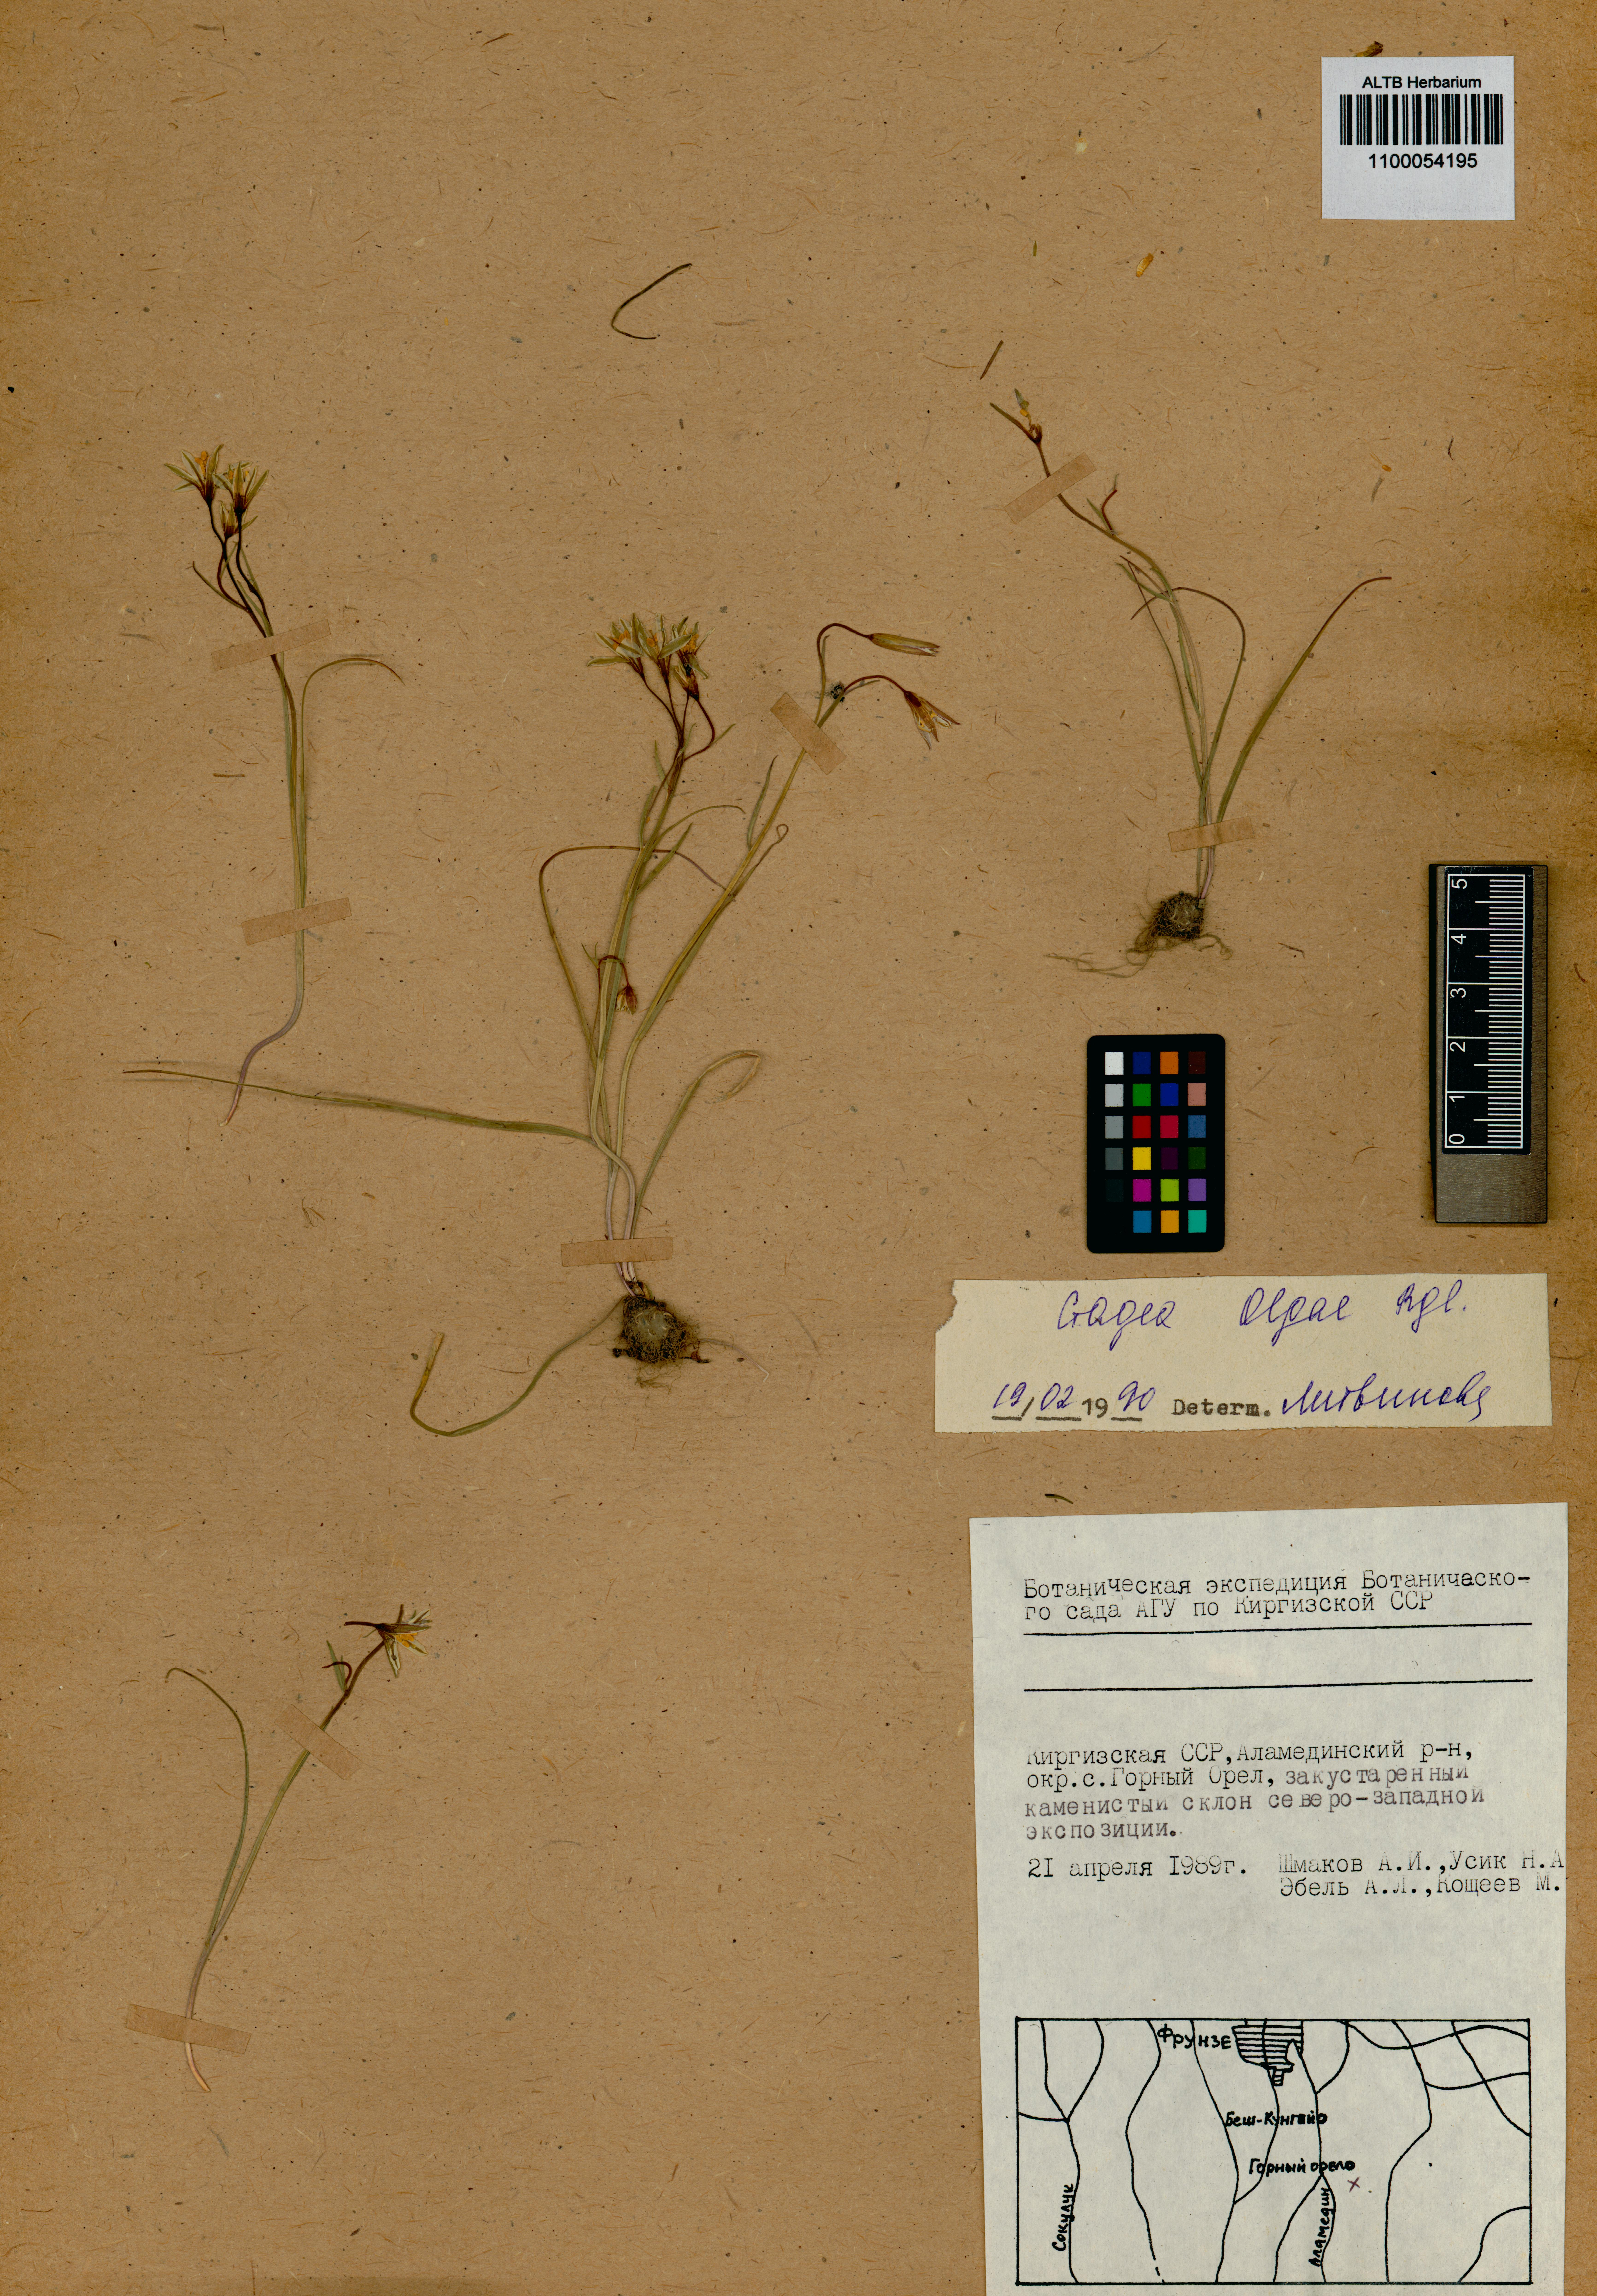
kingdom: Plantae
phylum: Tracheophyta
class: Liliopsida
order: Liliales
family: Liliaceae
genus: Gagea
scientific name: Gagea olgae
